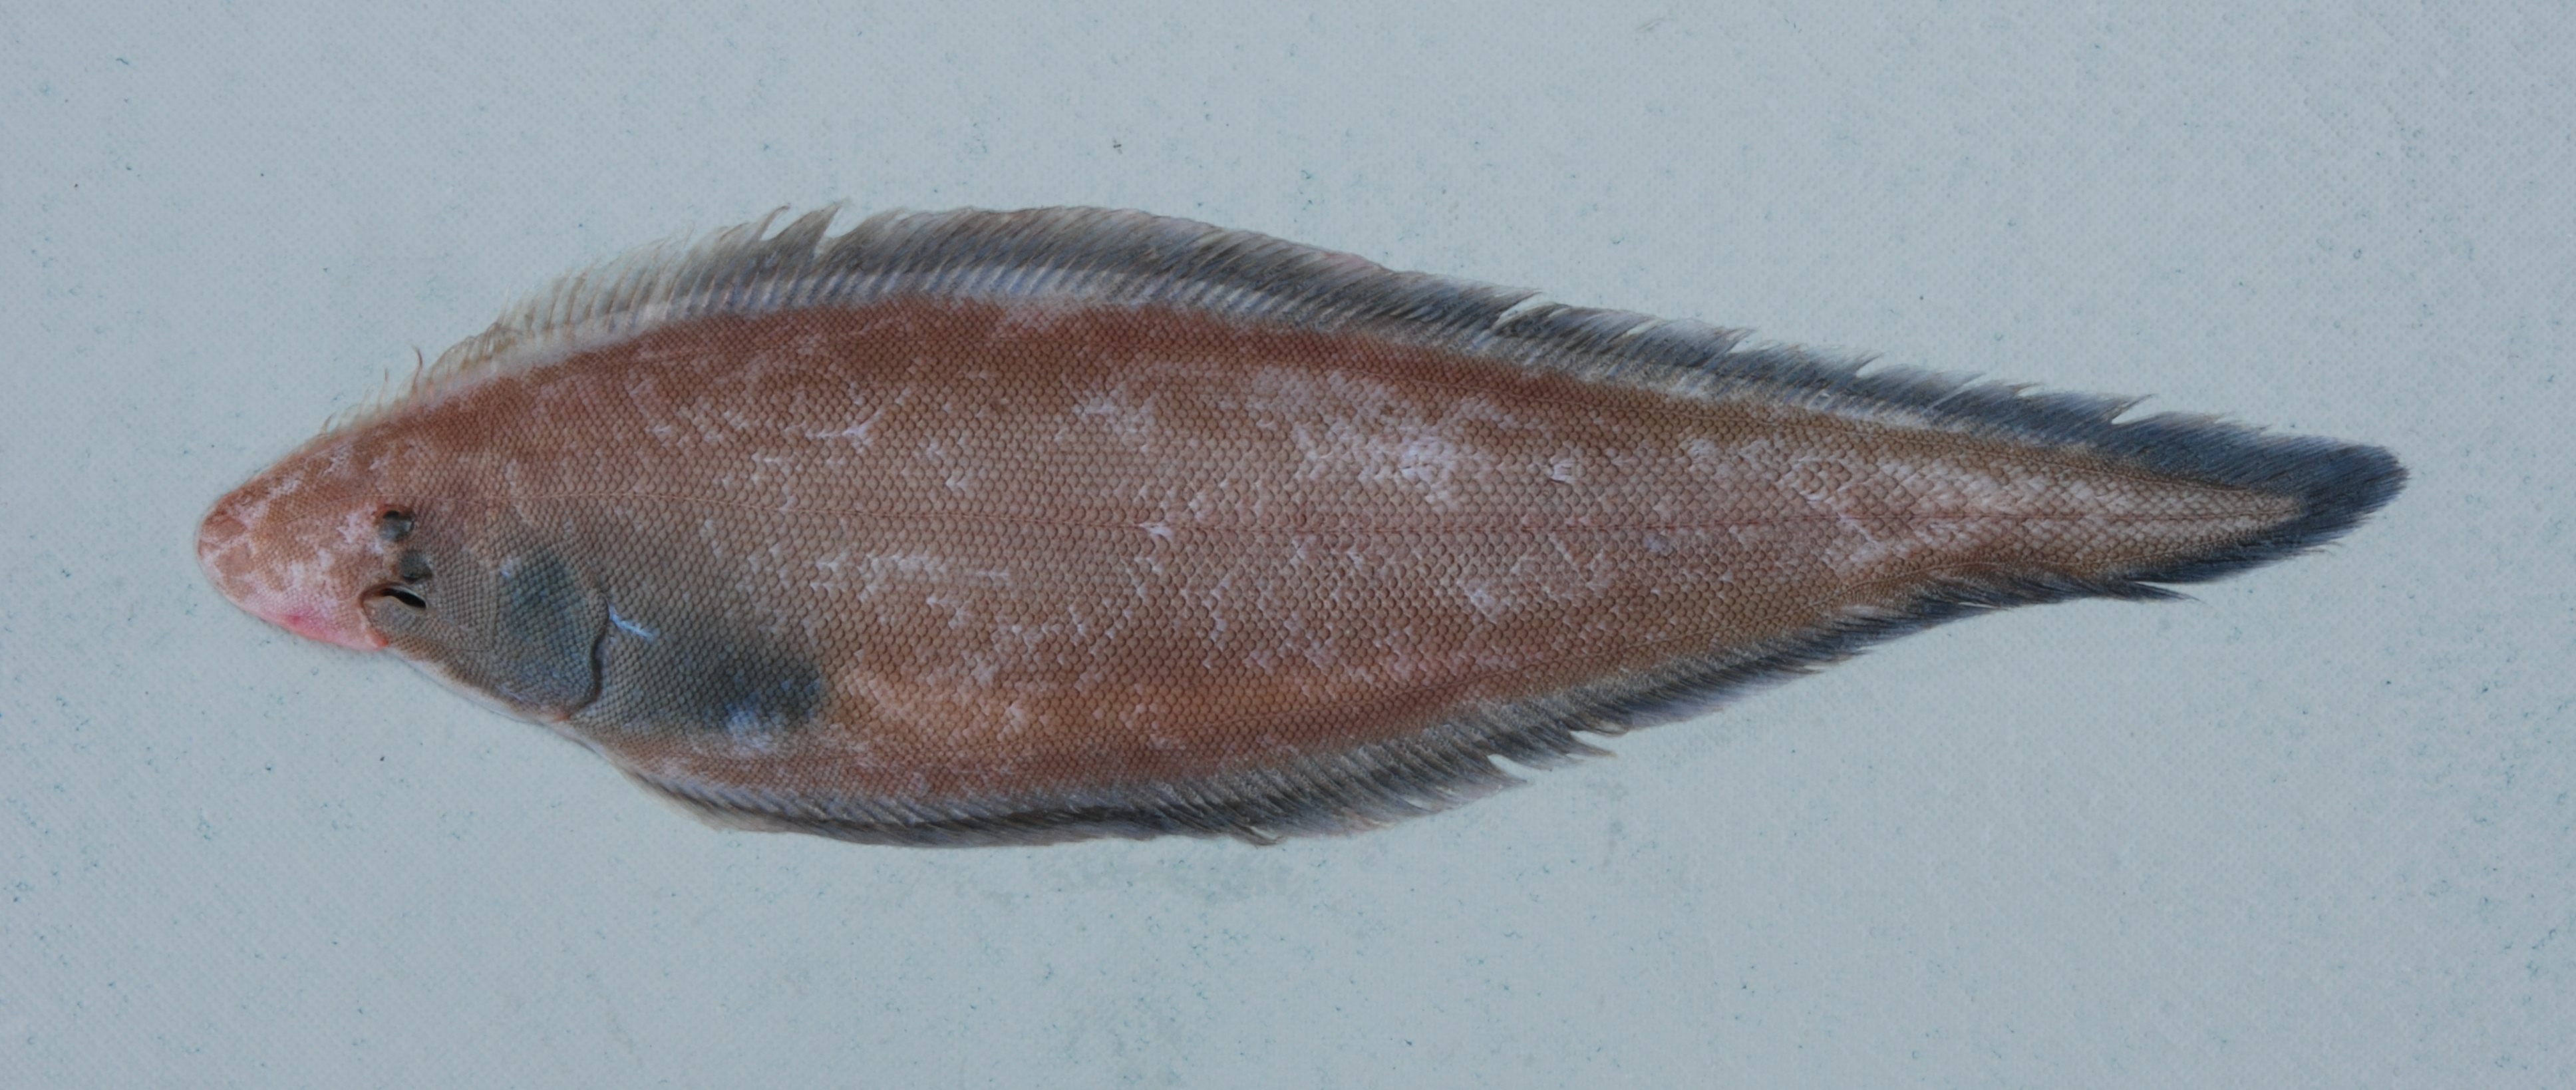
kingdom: Animalia
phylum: Chordata
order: Pleuronectiformes
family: Cynoglossidae
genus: Cynoglossus
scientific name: Cynoglossus marleyi
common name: Threeline tonguesole
